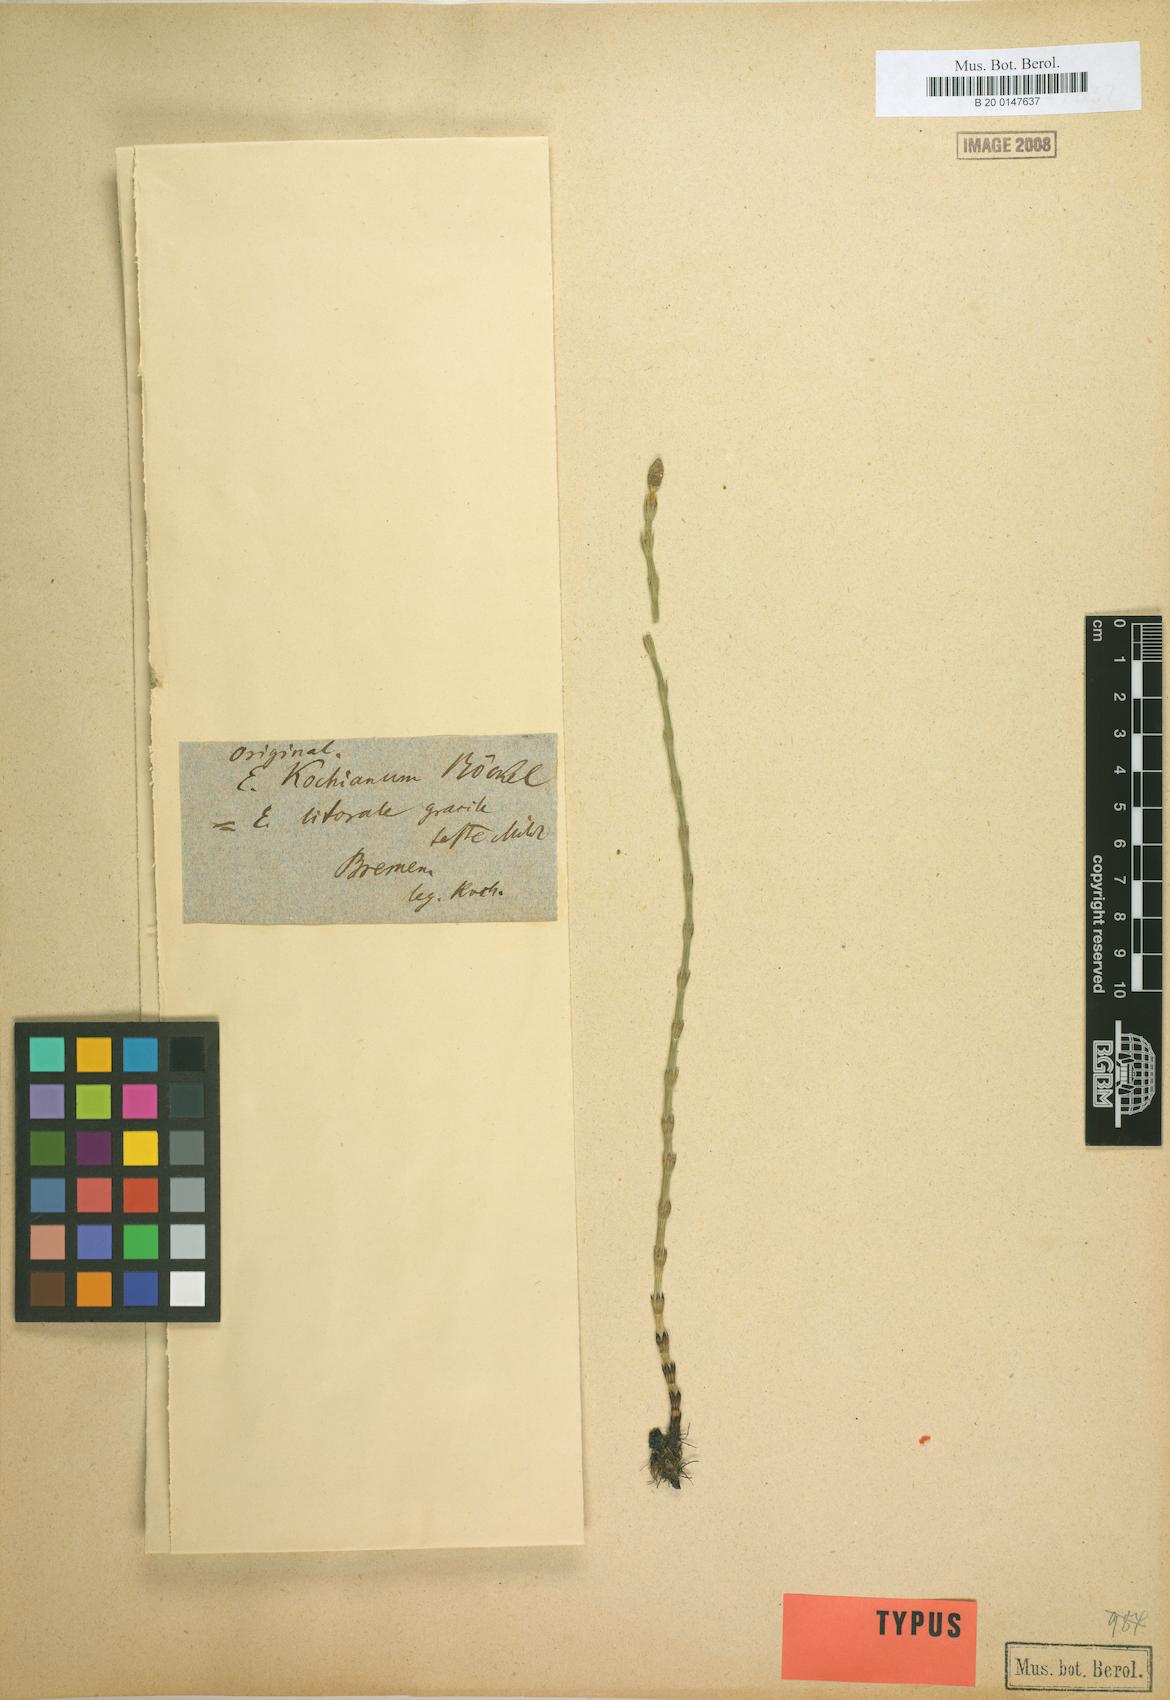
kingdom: Plantae
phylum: Tracheophyta
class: Polypodiopsida
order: Equisetales
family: Equisetaceae
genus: Equisetum
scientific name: Equisetum litorale
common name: Littoral horsetail
